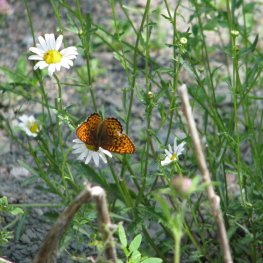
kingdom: Animalia
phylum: Arthropoda
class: Insecta
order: Lepidoptera
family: Nymphalidae
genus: Speyeria
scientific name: Speyeria atlantis
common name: Atlantis Fritillary
